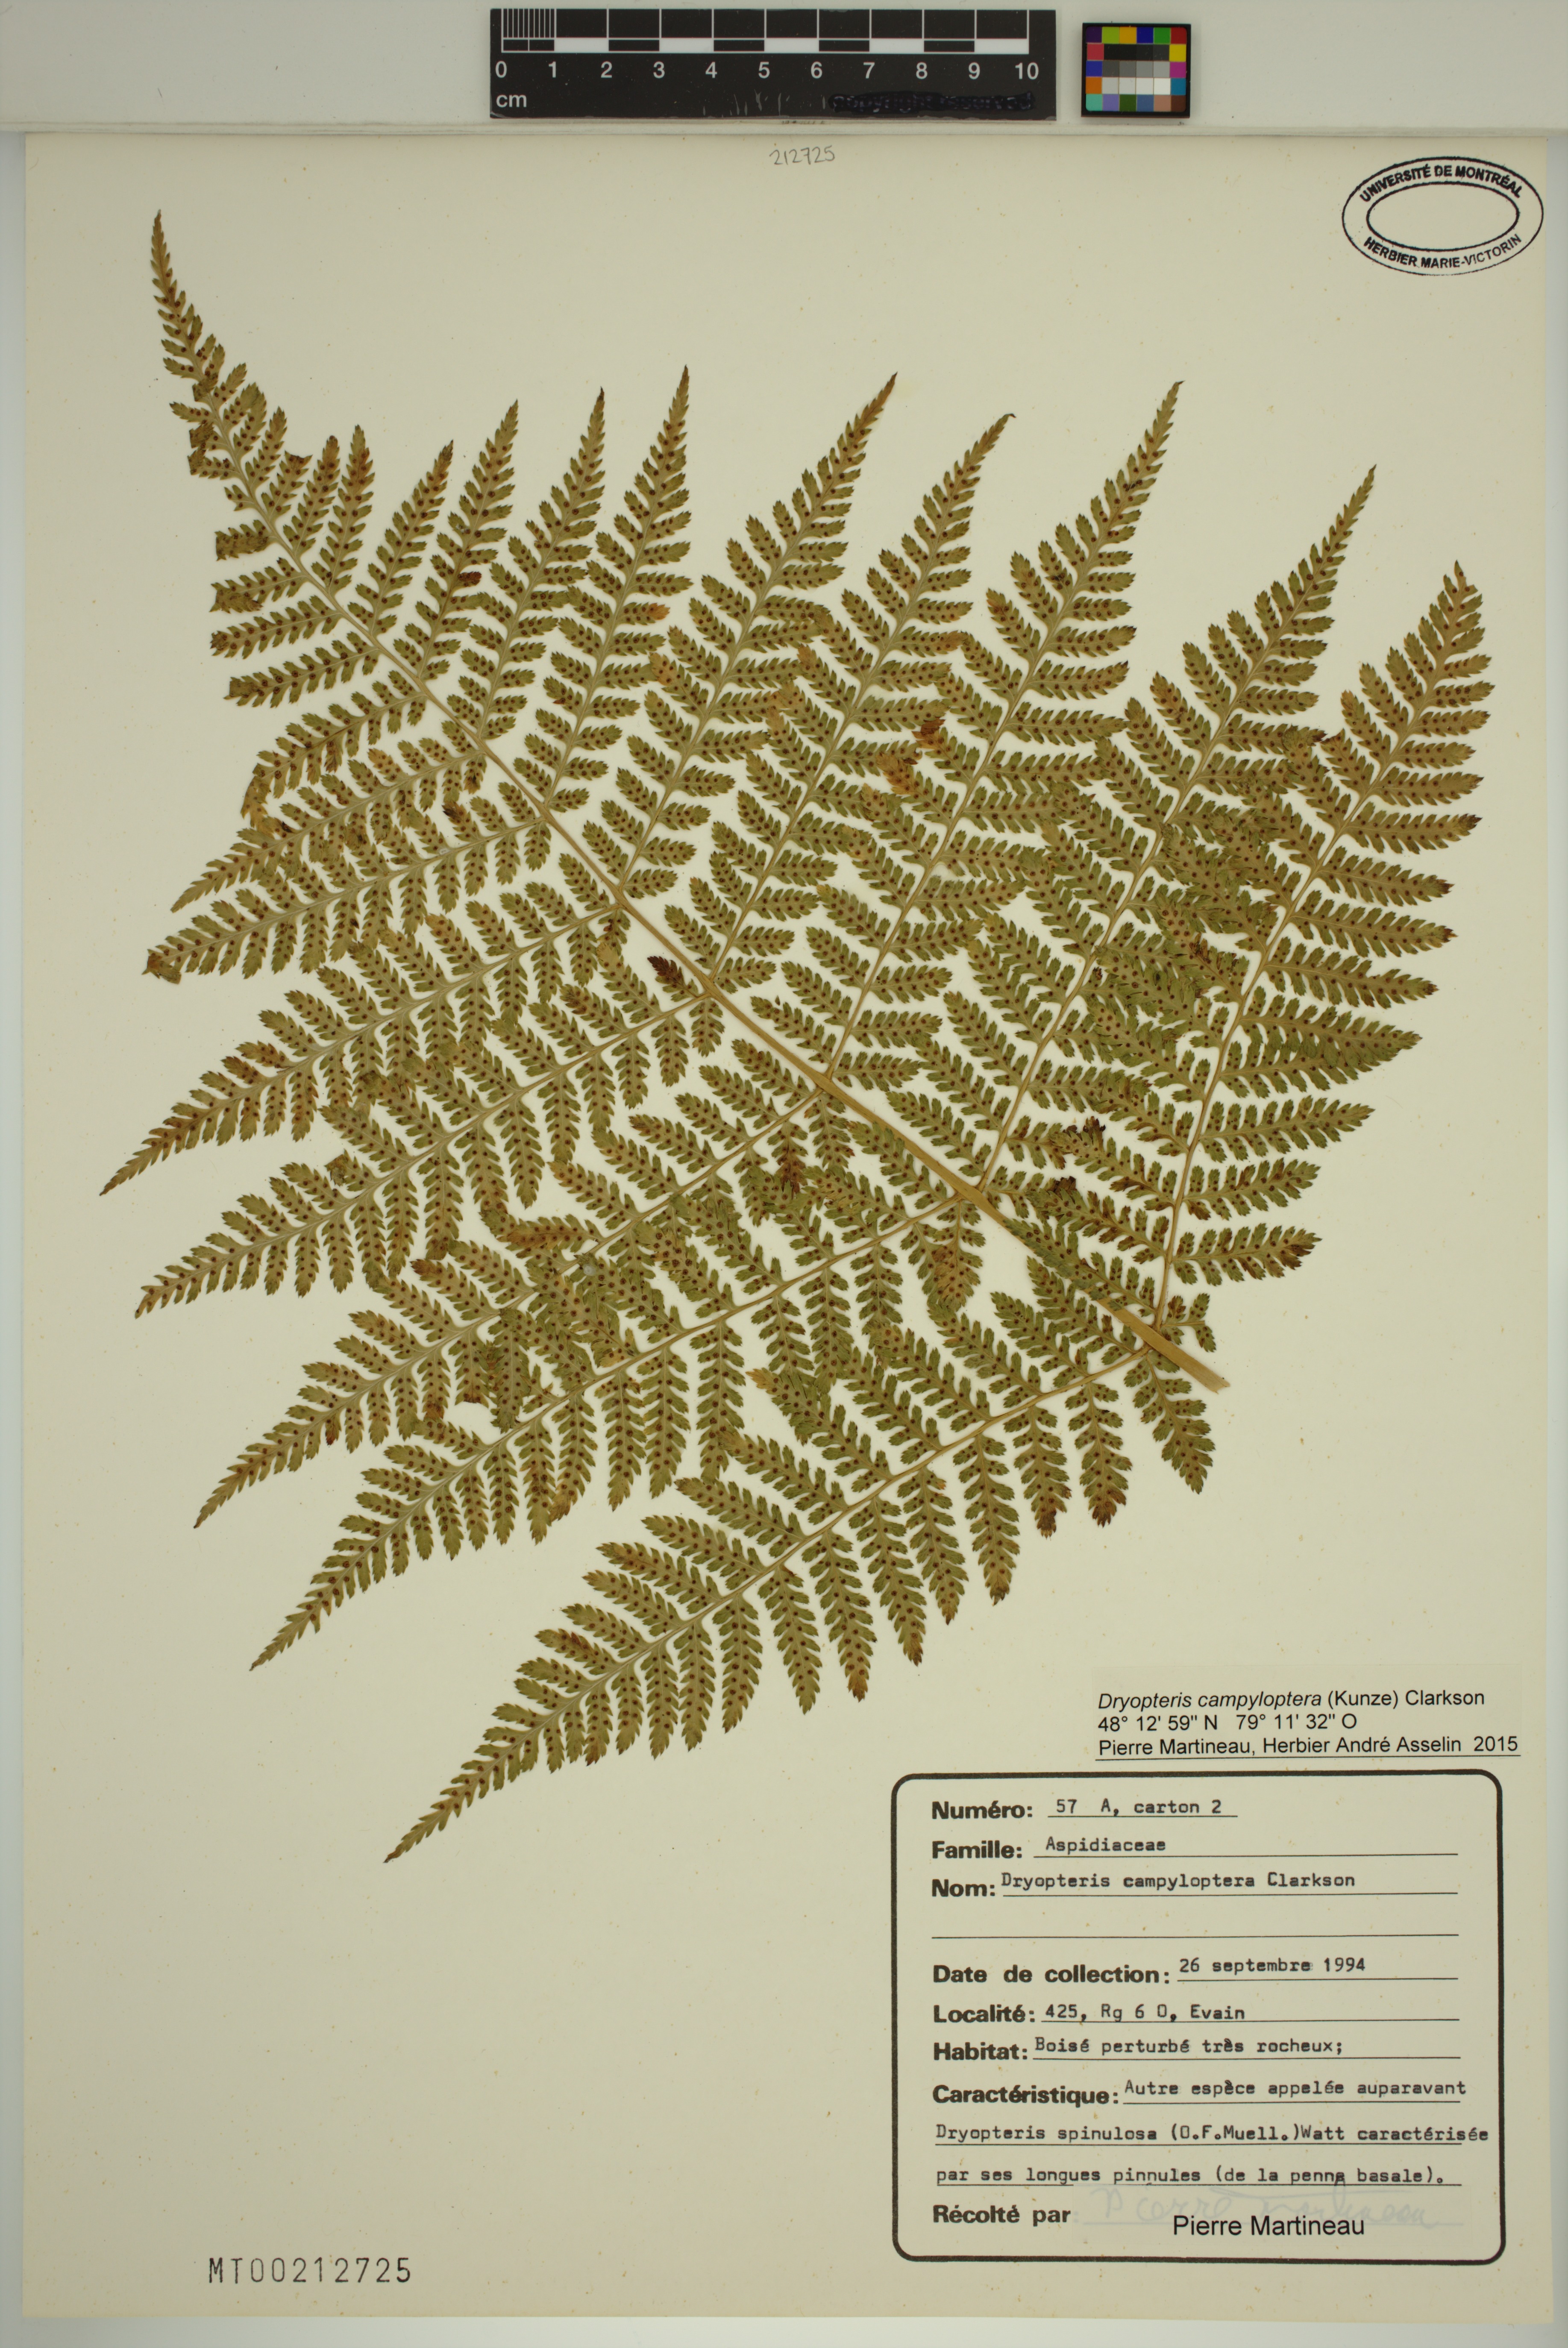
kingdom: Plantae
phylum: Tracheophyta
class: Polypodiopsida
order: Polypodiales
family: Dryopteridaceae
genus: Dryopteris
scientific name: Dryopteris campyloptera
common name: Mountain wood fern
